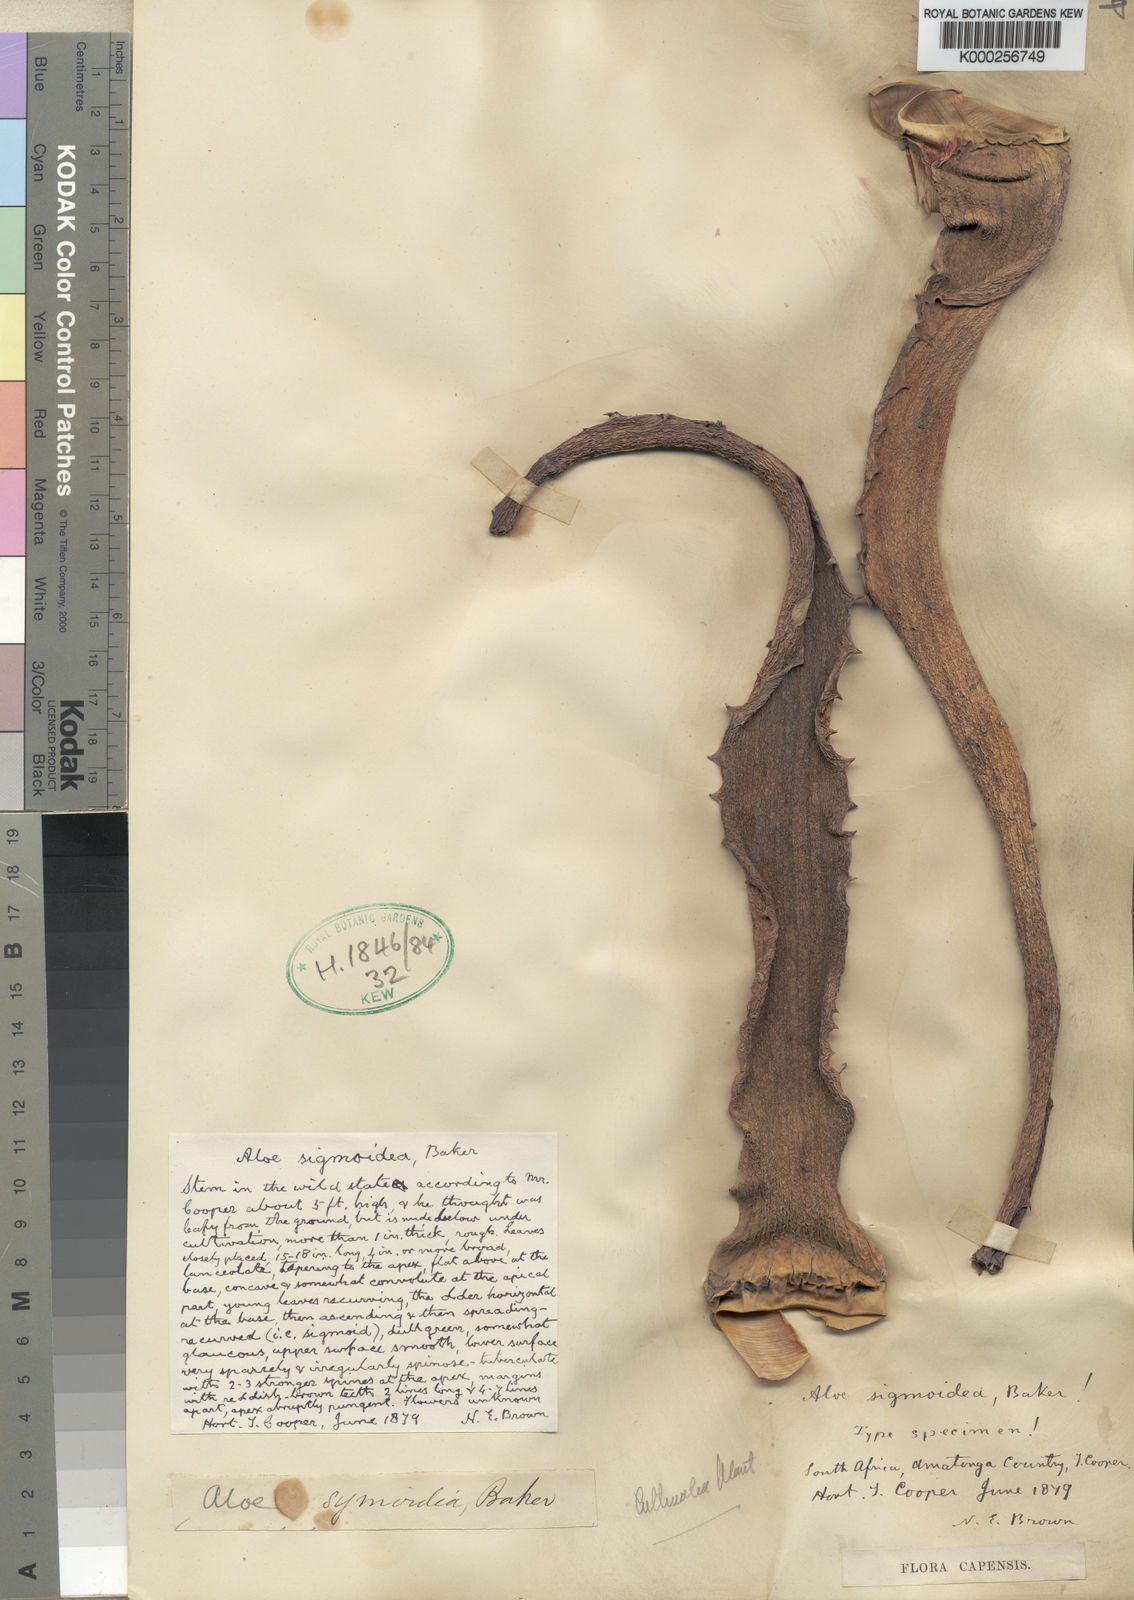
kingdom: Plantae
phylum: Tracheophyta
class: Liliopsida
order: Asparagales
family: Asphodelaceae
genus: Aloe
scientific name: Aloe arborescens
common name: Candelabra aloe
